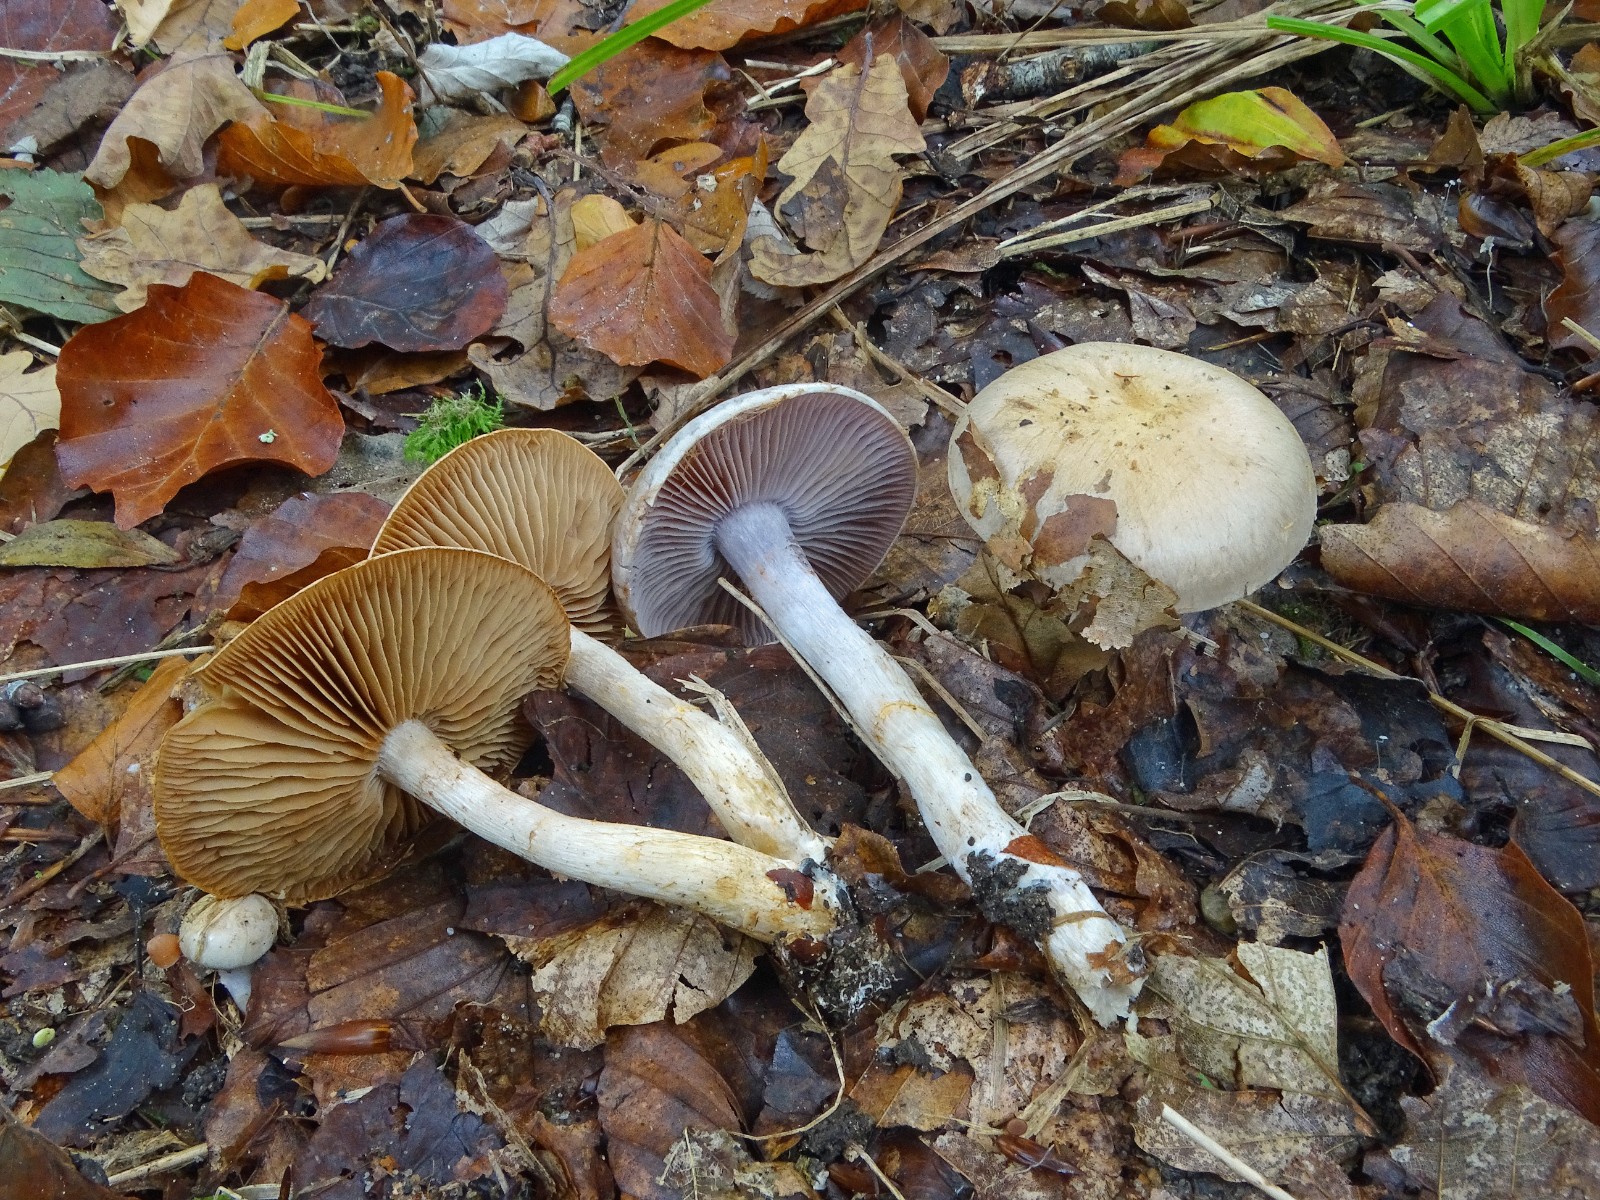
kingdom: Fungi
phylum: Basidiomycota
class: Agaricomycetes
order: Agaricales
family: Cortinariaceae
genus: Cortinarius
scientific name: Cortinarius
